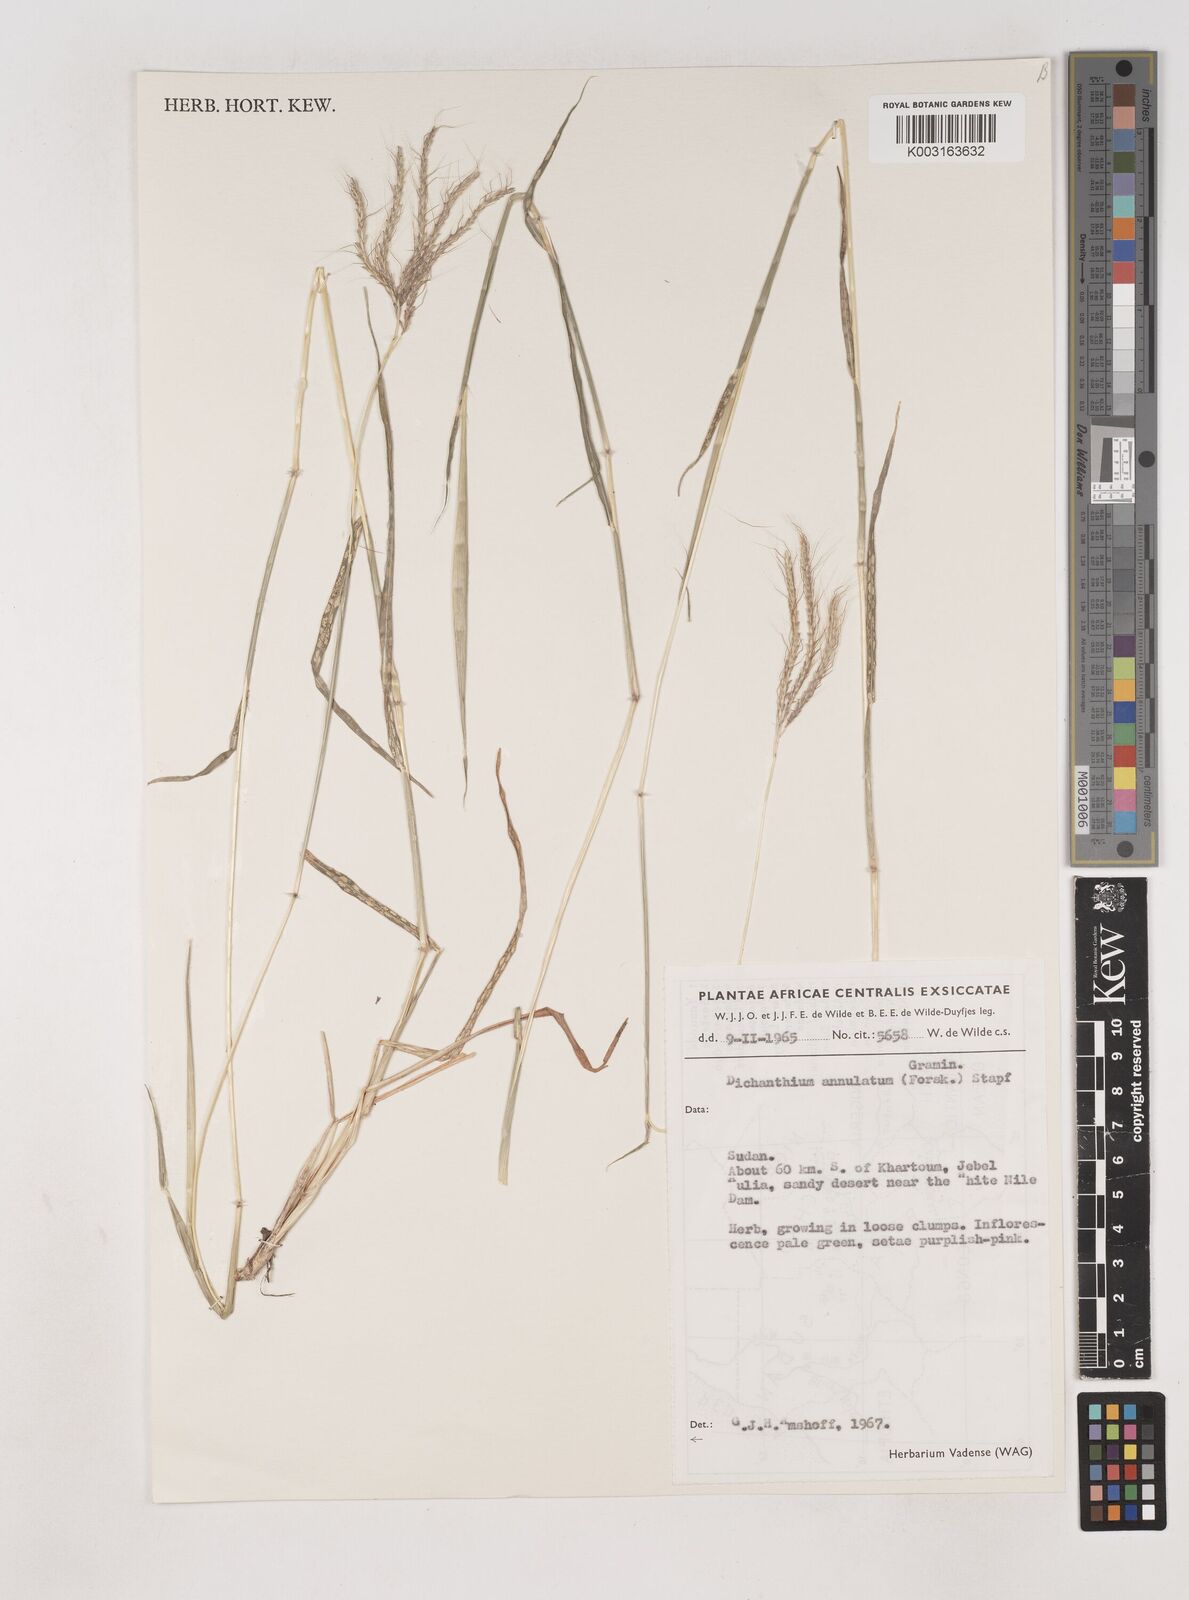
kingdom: Plantae
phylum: Tracheophyta
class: Liliopsida
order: Poales
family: Poaceae
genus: Dichanthium
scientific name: Dichanthium annulatum
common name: Kleberg's bluestem
